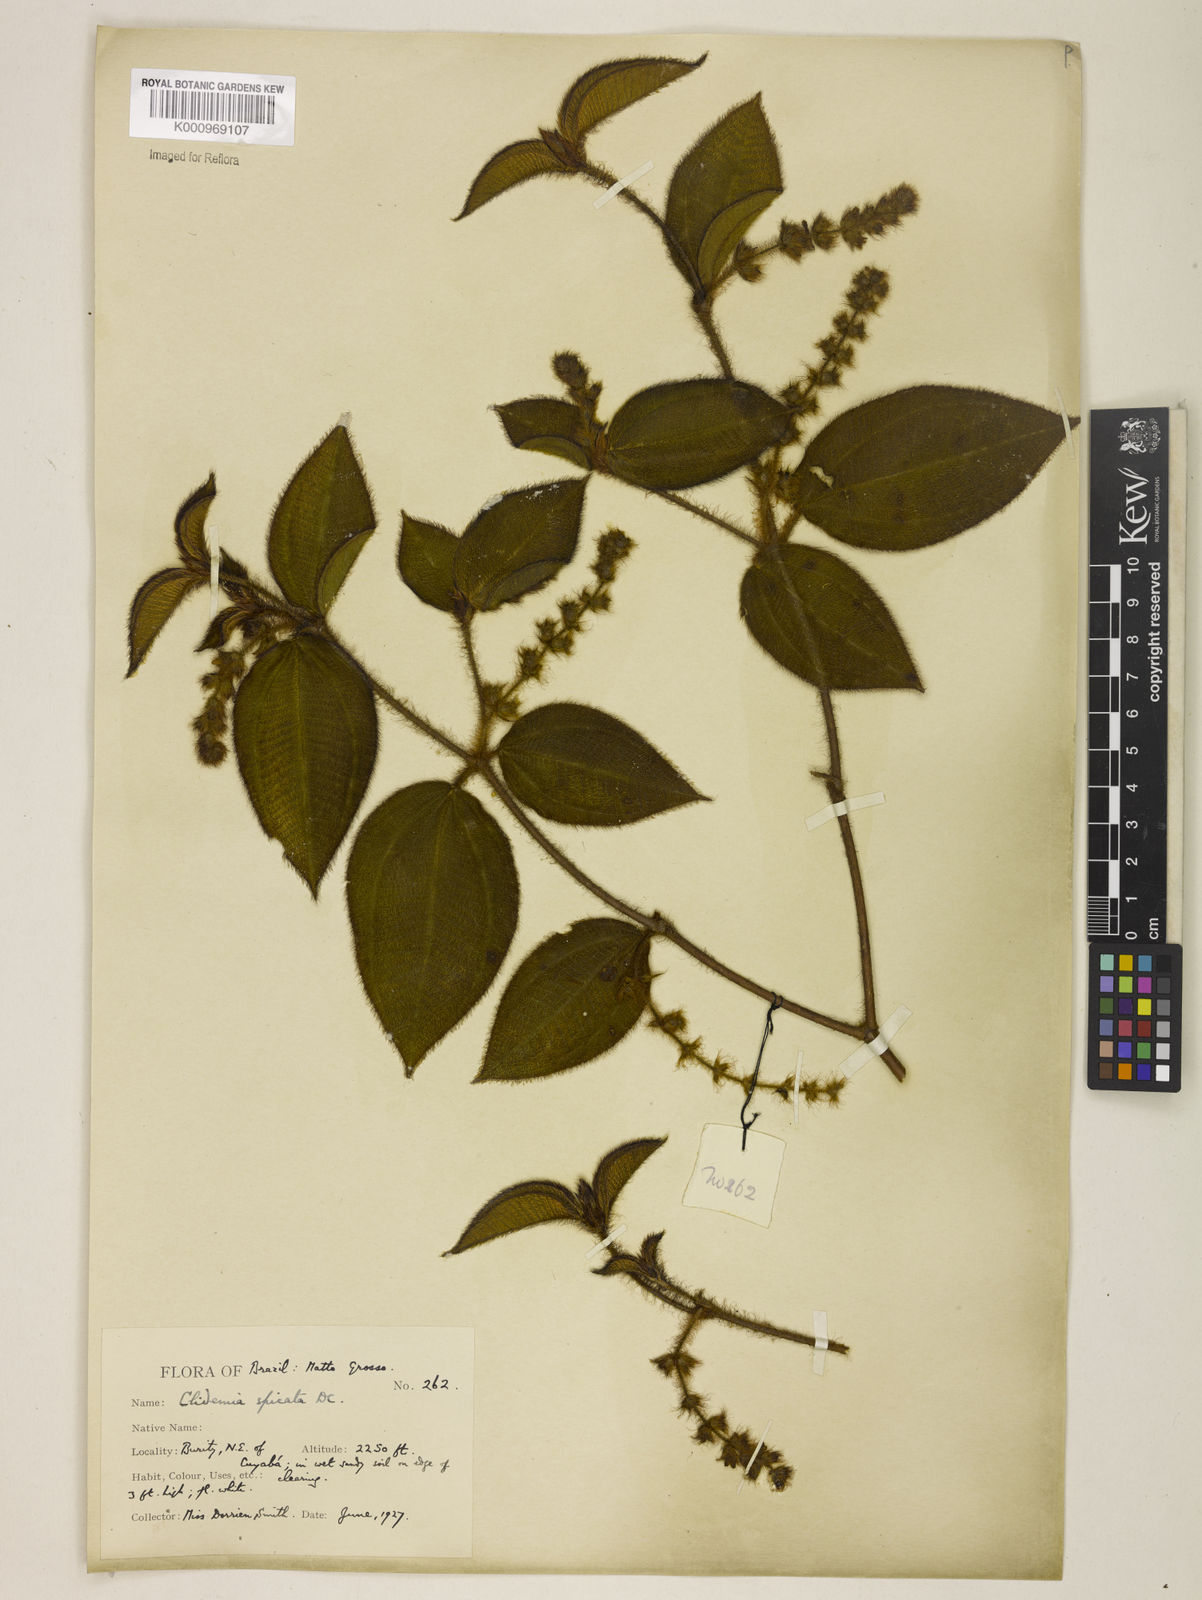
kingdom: Plantae
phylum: Tracheophyta
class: Magnoliopsida
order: Myrtales
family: Melastomataceae
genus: Miconia
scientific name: Miconia dependens
